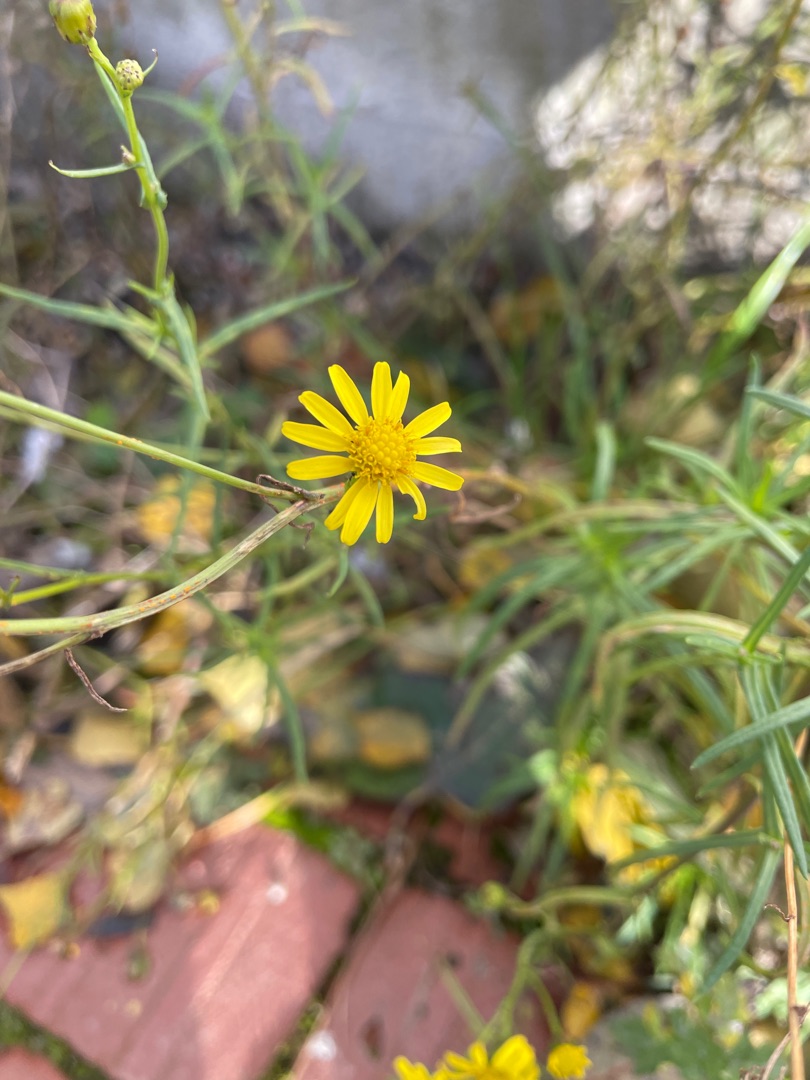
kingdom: Plantae
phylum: Tracheophyta
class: Magnoliopsida
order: Asterales
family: Asteraceae
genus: Senecio
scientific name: Senecio inaequidens
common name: Smalbladet brandbæger
